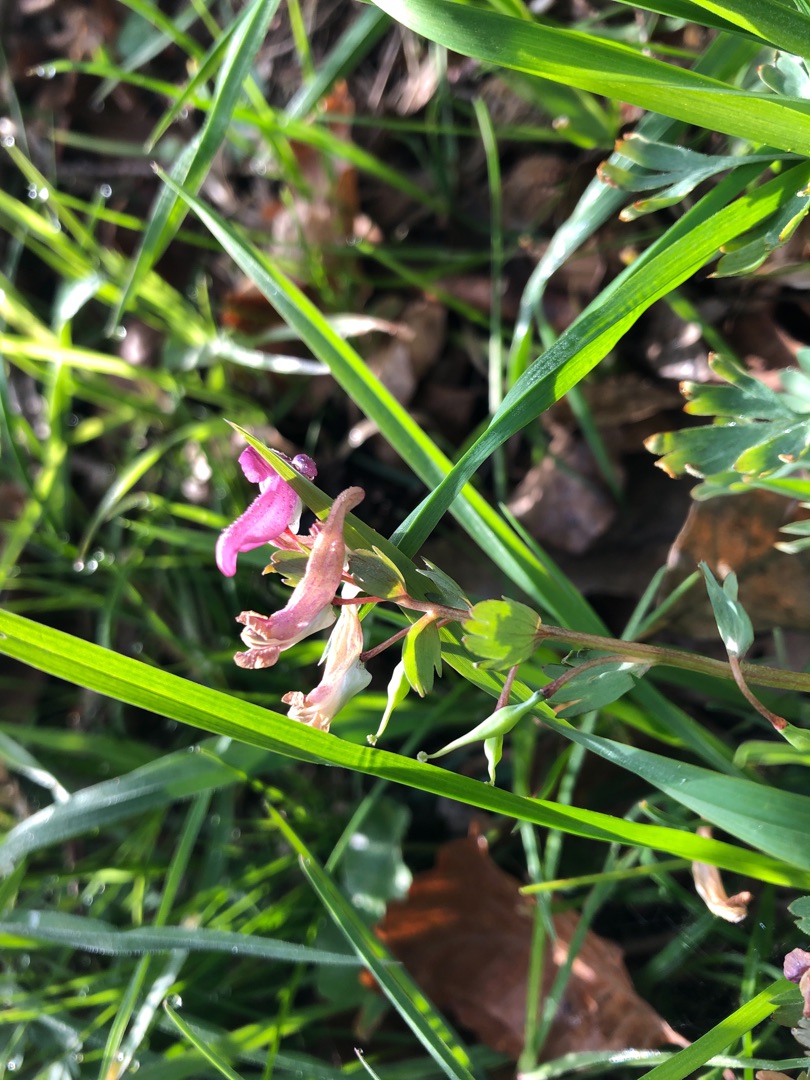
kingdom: Plantae
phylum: Tracheophyta
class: Magnoliopsida
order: Ranunculales
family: Papaveraceae
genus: Corydalis
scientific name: Corydalis solida
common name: Langstilket lærkespore
